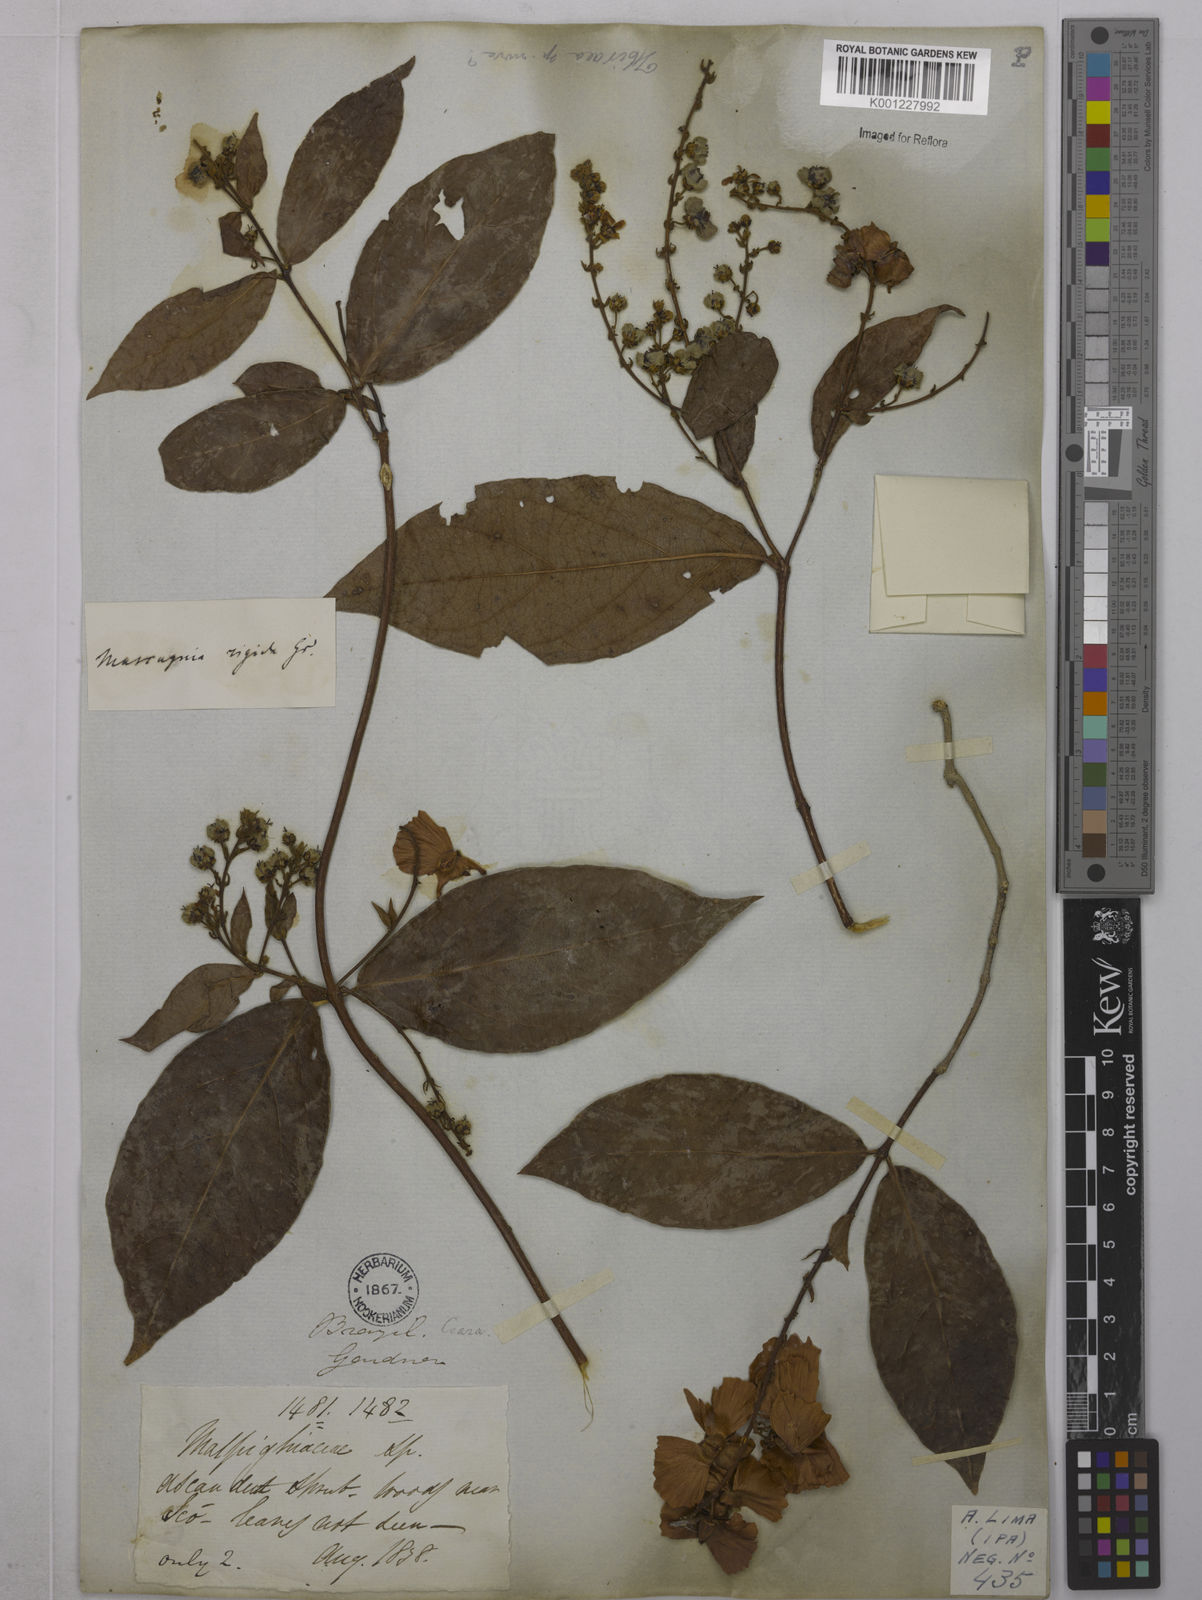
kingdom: Plantae
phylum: Tracheophyta
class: Magnoliopsida
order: Malpighiales
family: Malpighiaceae
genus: Amorimia
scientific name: Amorimia rigida
